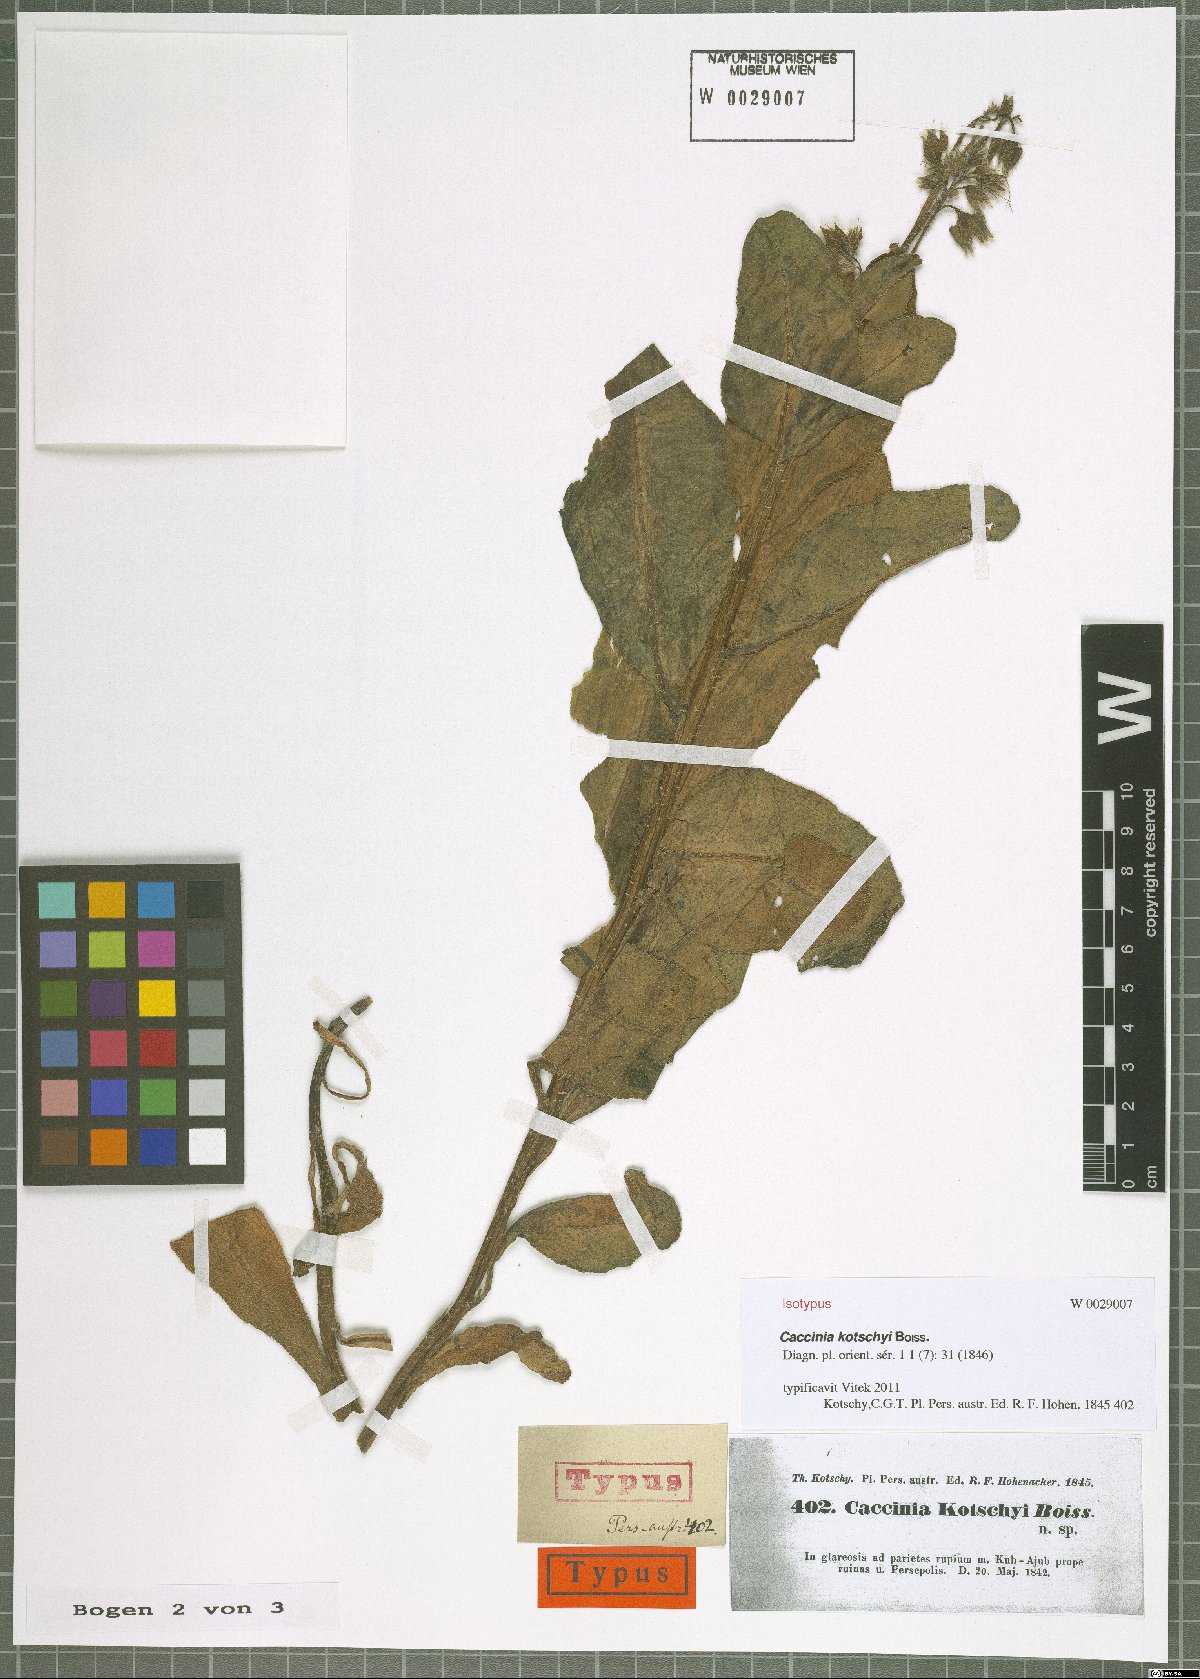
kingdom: Plantae
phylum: Tracheophyta
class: Magnoliopsida
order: Boraginales
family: Boraginaceae
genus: Caccinia
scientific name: Caccinia kotschyi
